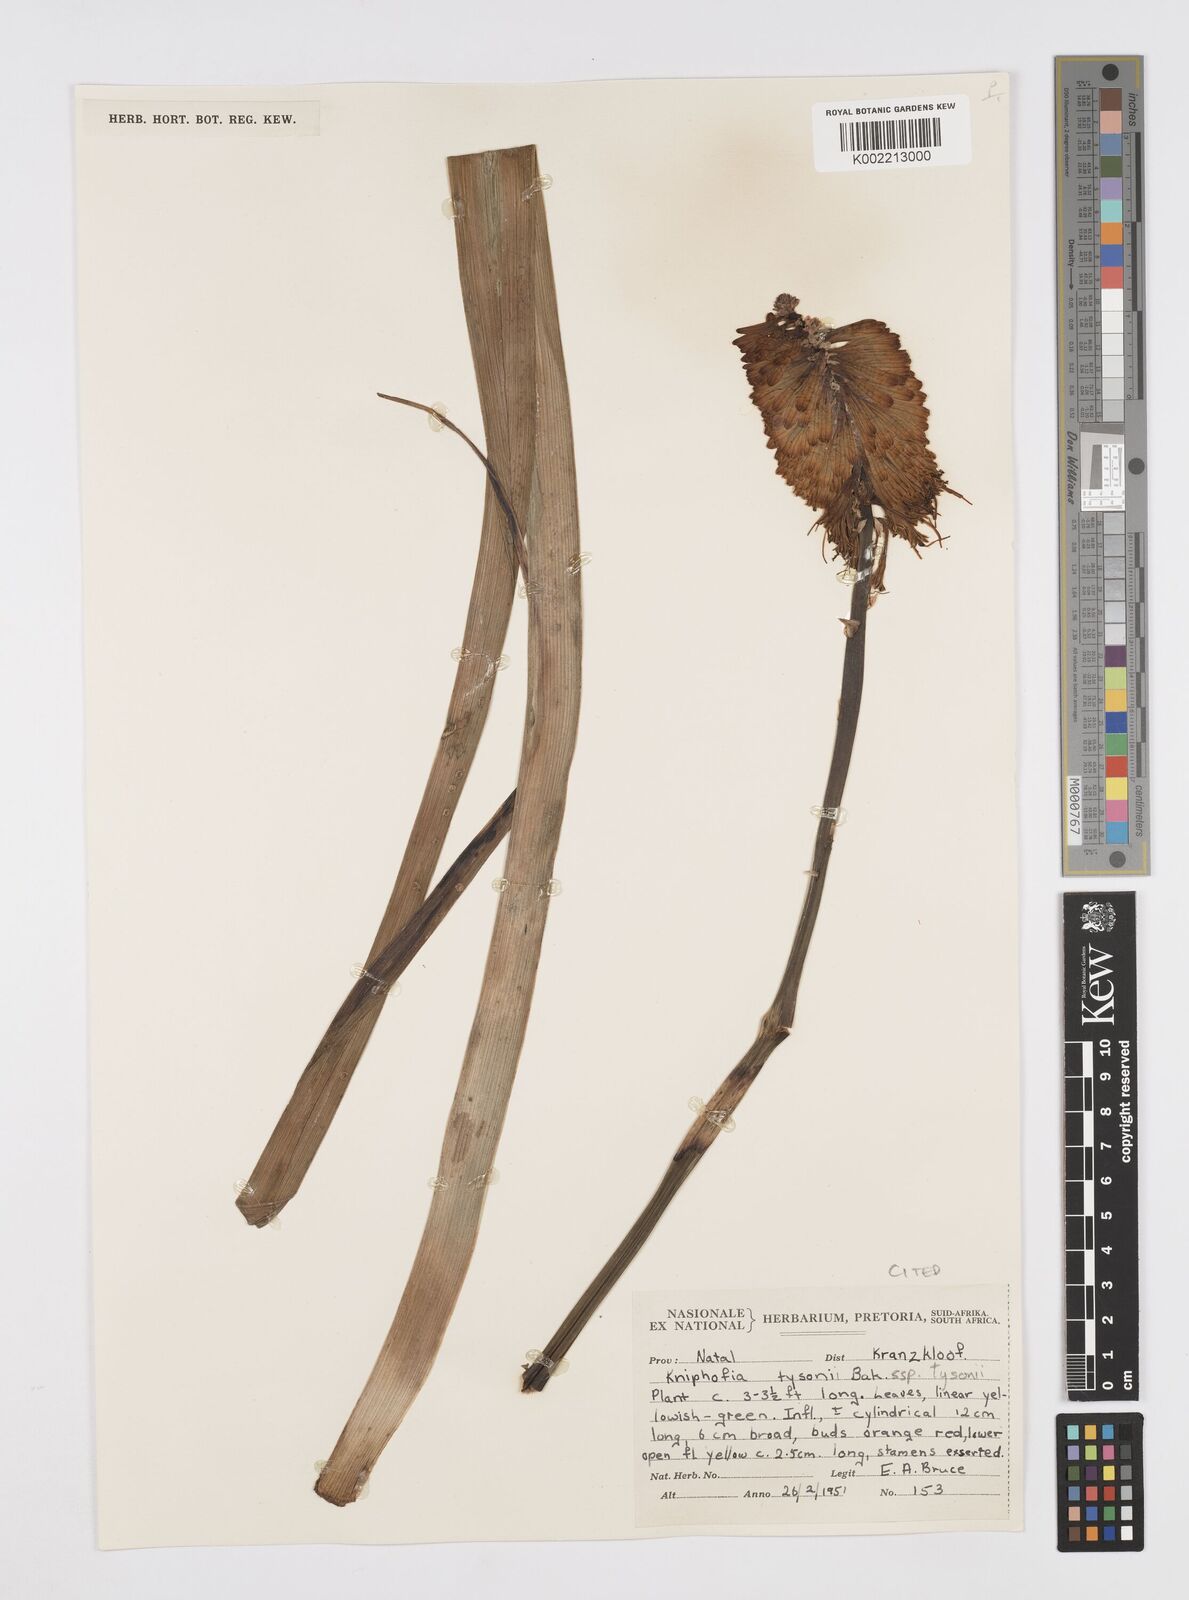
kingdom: Plantae
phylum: Tracheophyta
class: Liliopsida
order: Asparagales
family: Asphodelaceae
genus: Kniphofia
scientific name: Kniphofia tysonii
